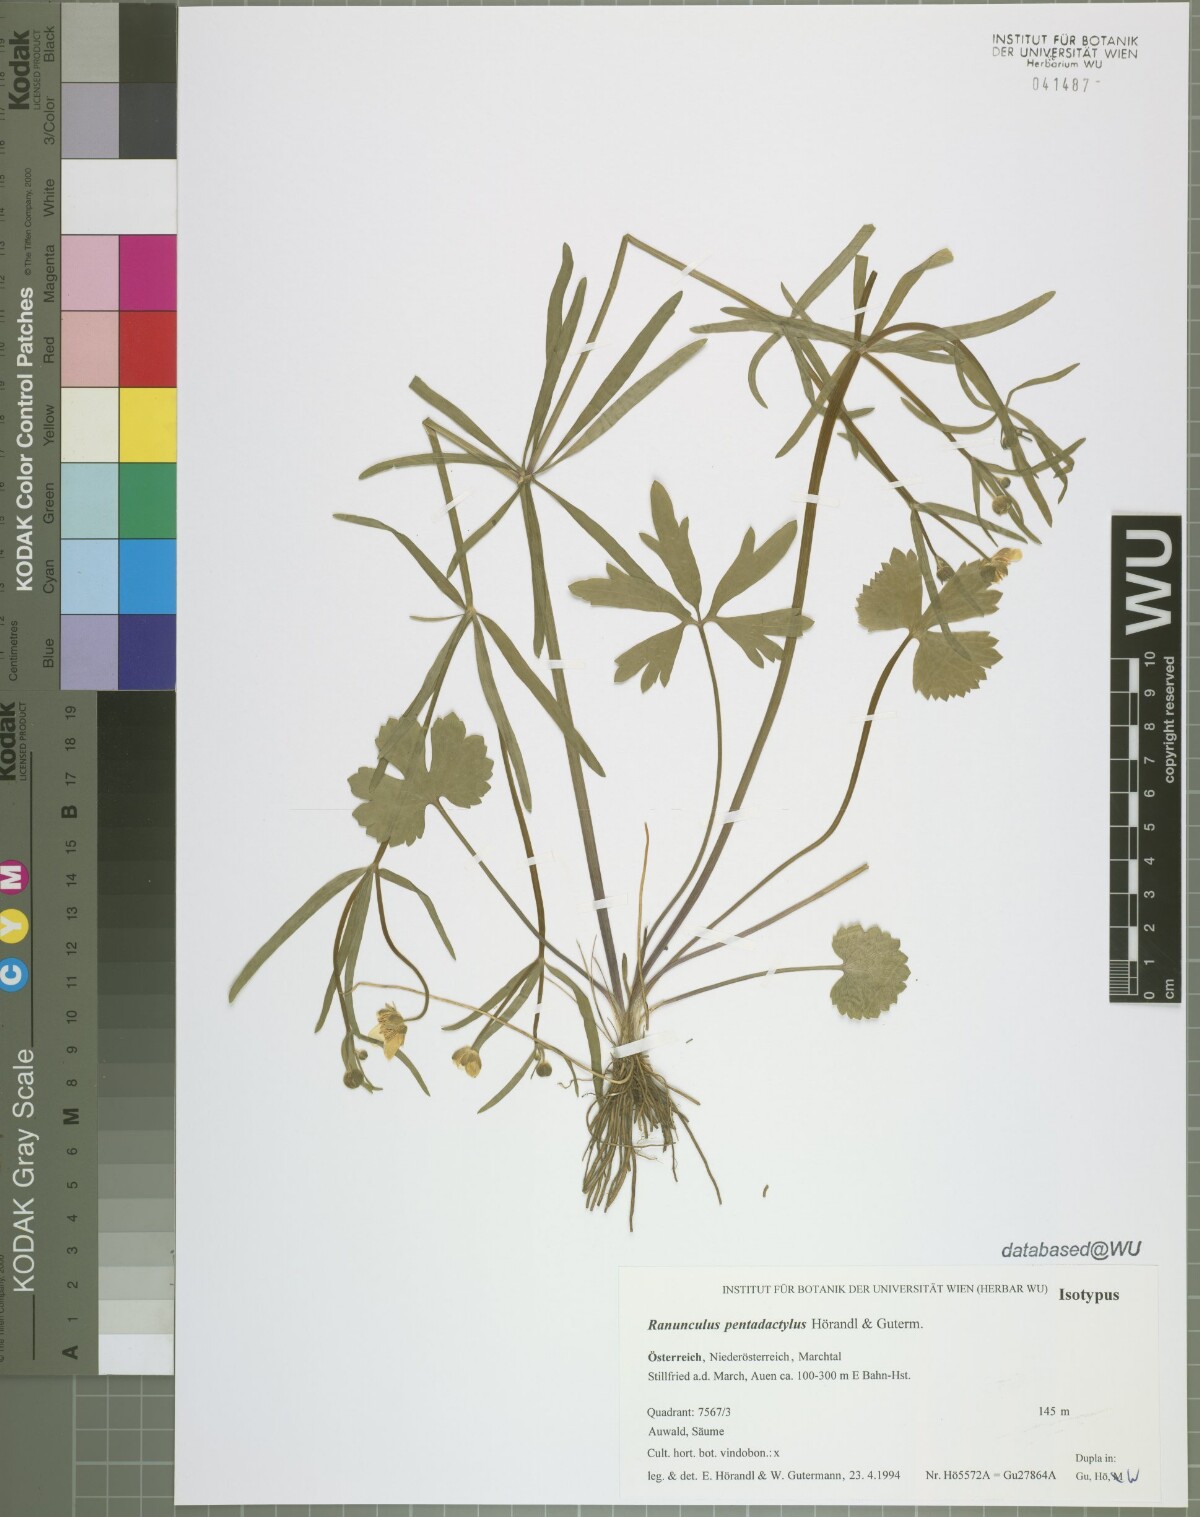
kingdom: Plantae
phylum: Tracheophyta
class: Magnoliopsida
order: Ranunculales
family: Ranunculaceae
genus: Ranunculus
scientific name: Ranunculus pentadactylus
